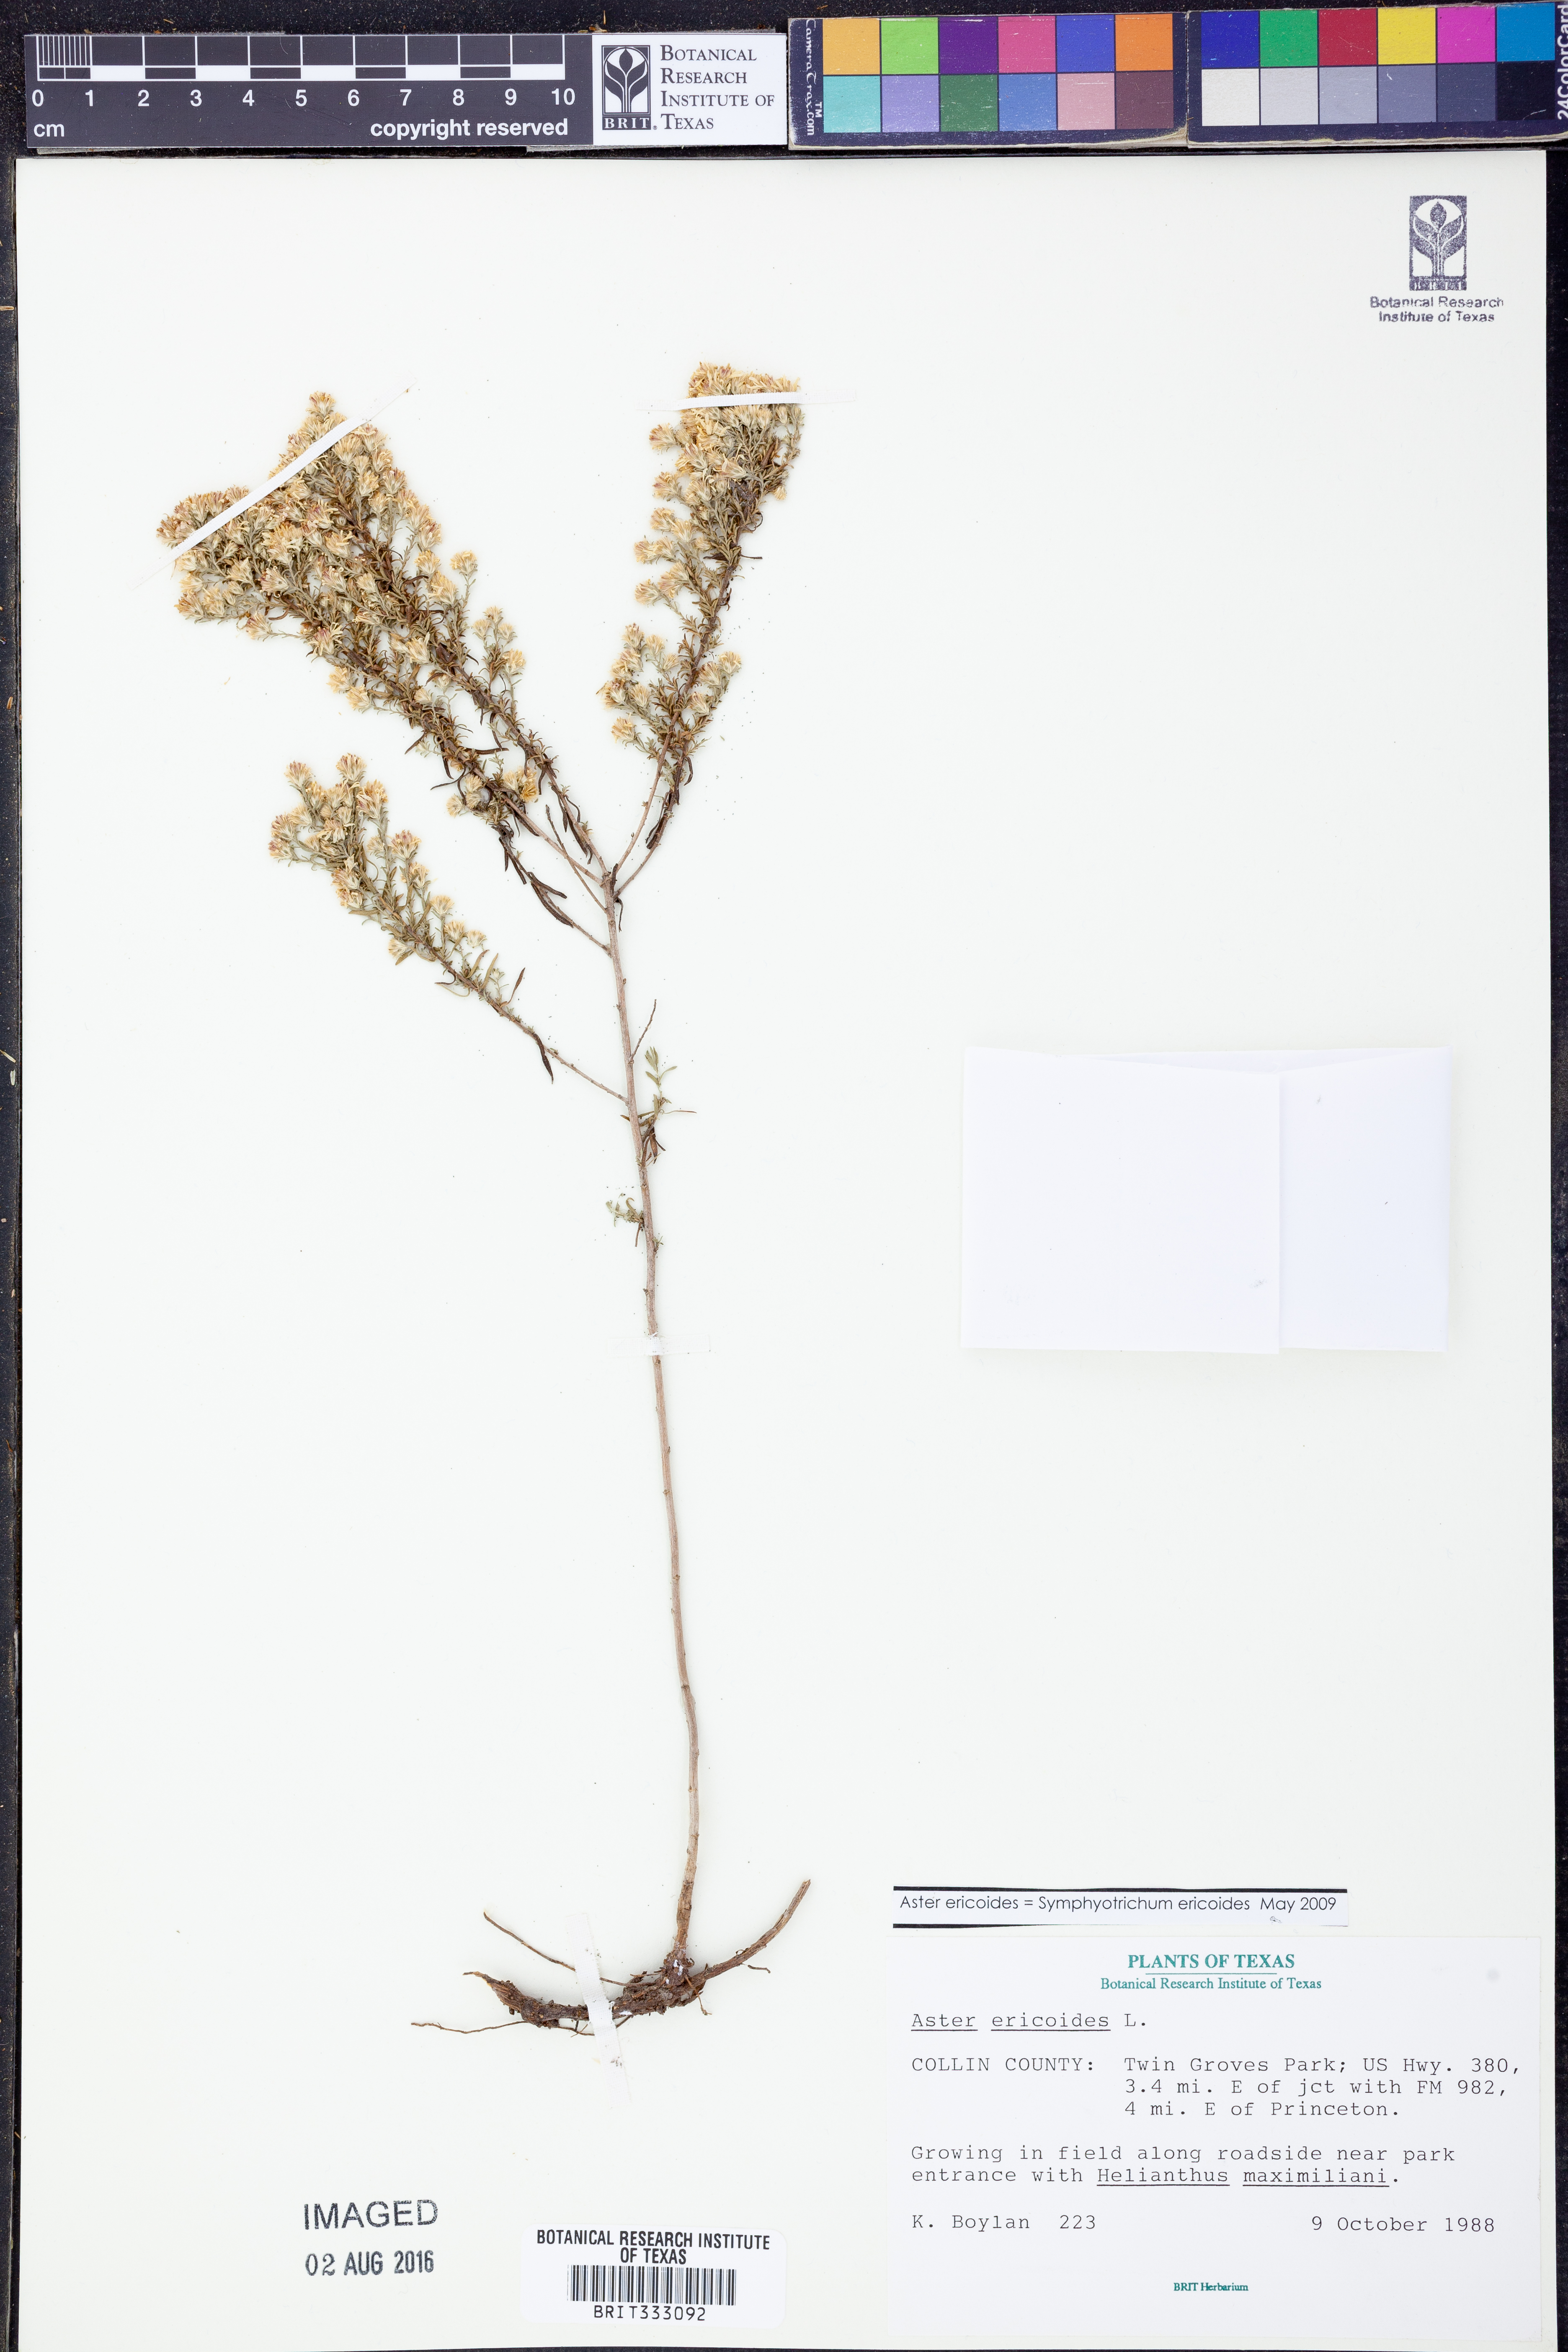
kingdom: Plantae
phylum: Tracheophyta
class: Magnoliopsida
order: Asterales
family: Asteraceae
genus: Symphyotrichum
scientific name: Symphyotrichum ericoides
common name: Heath aster
